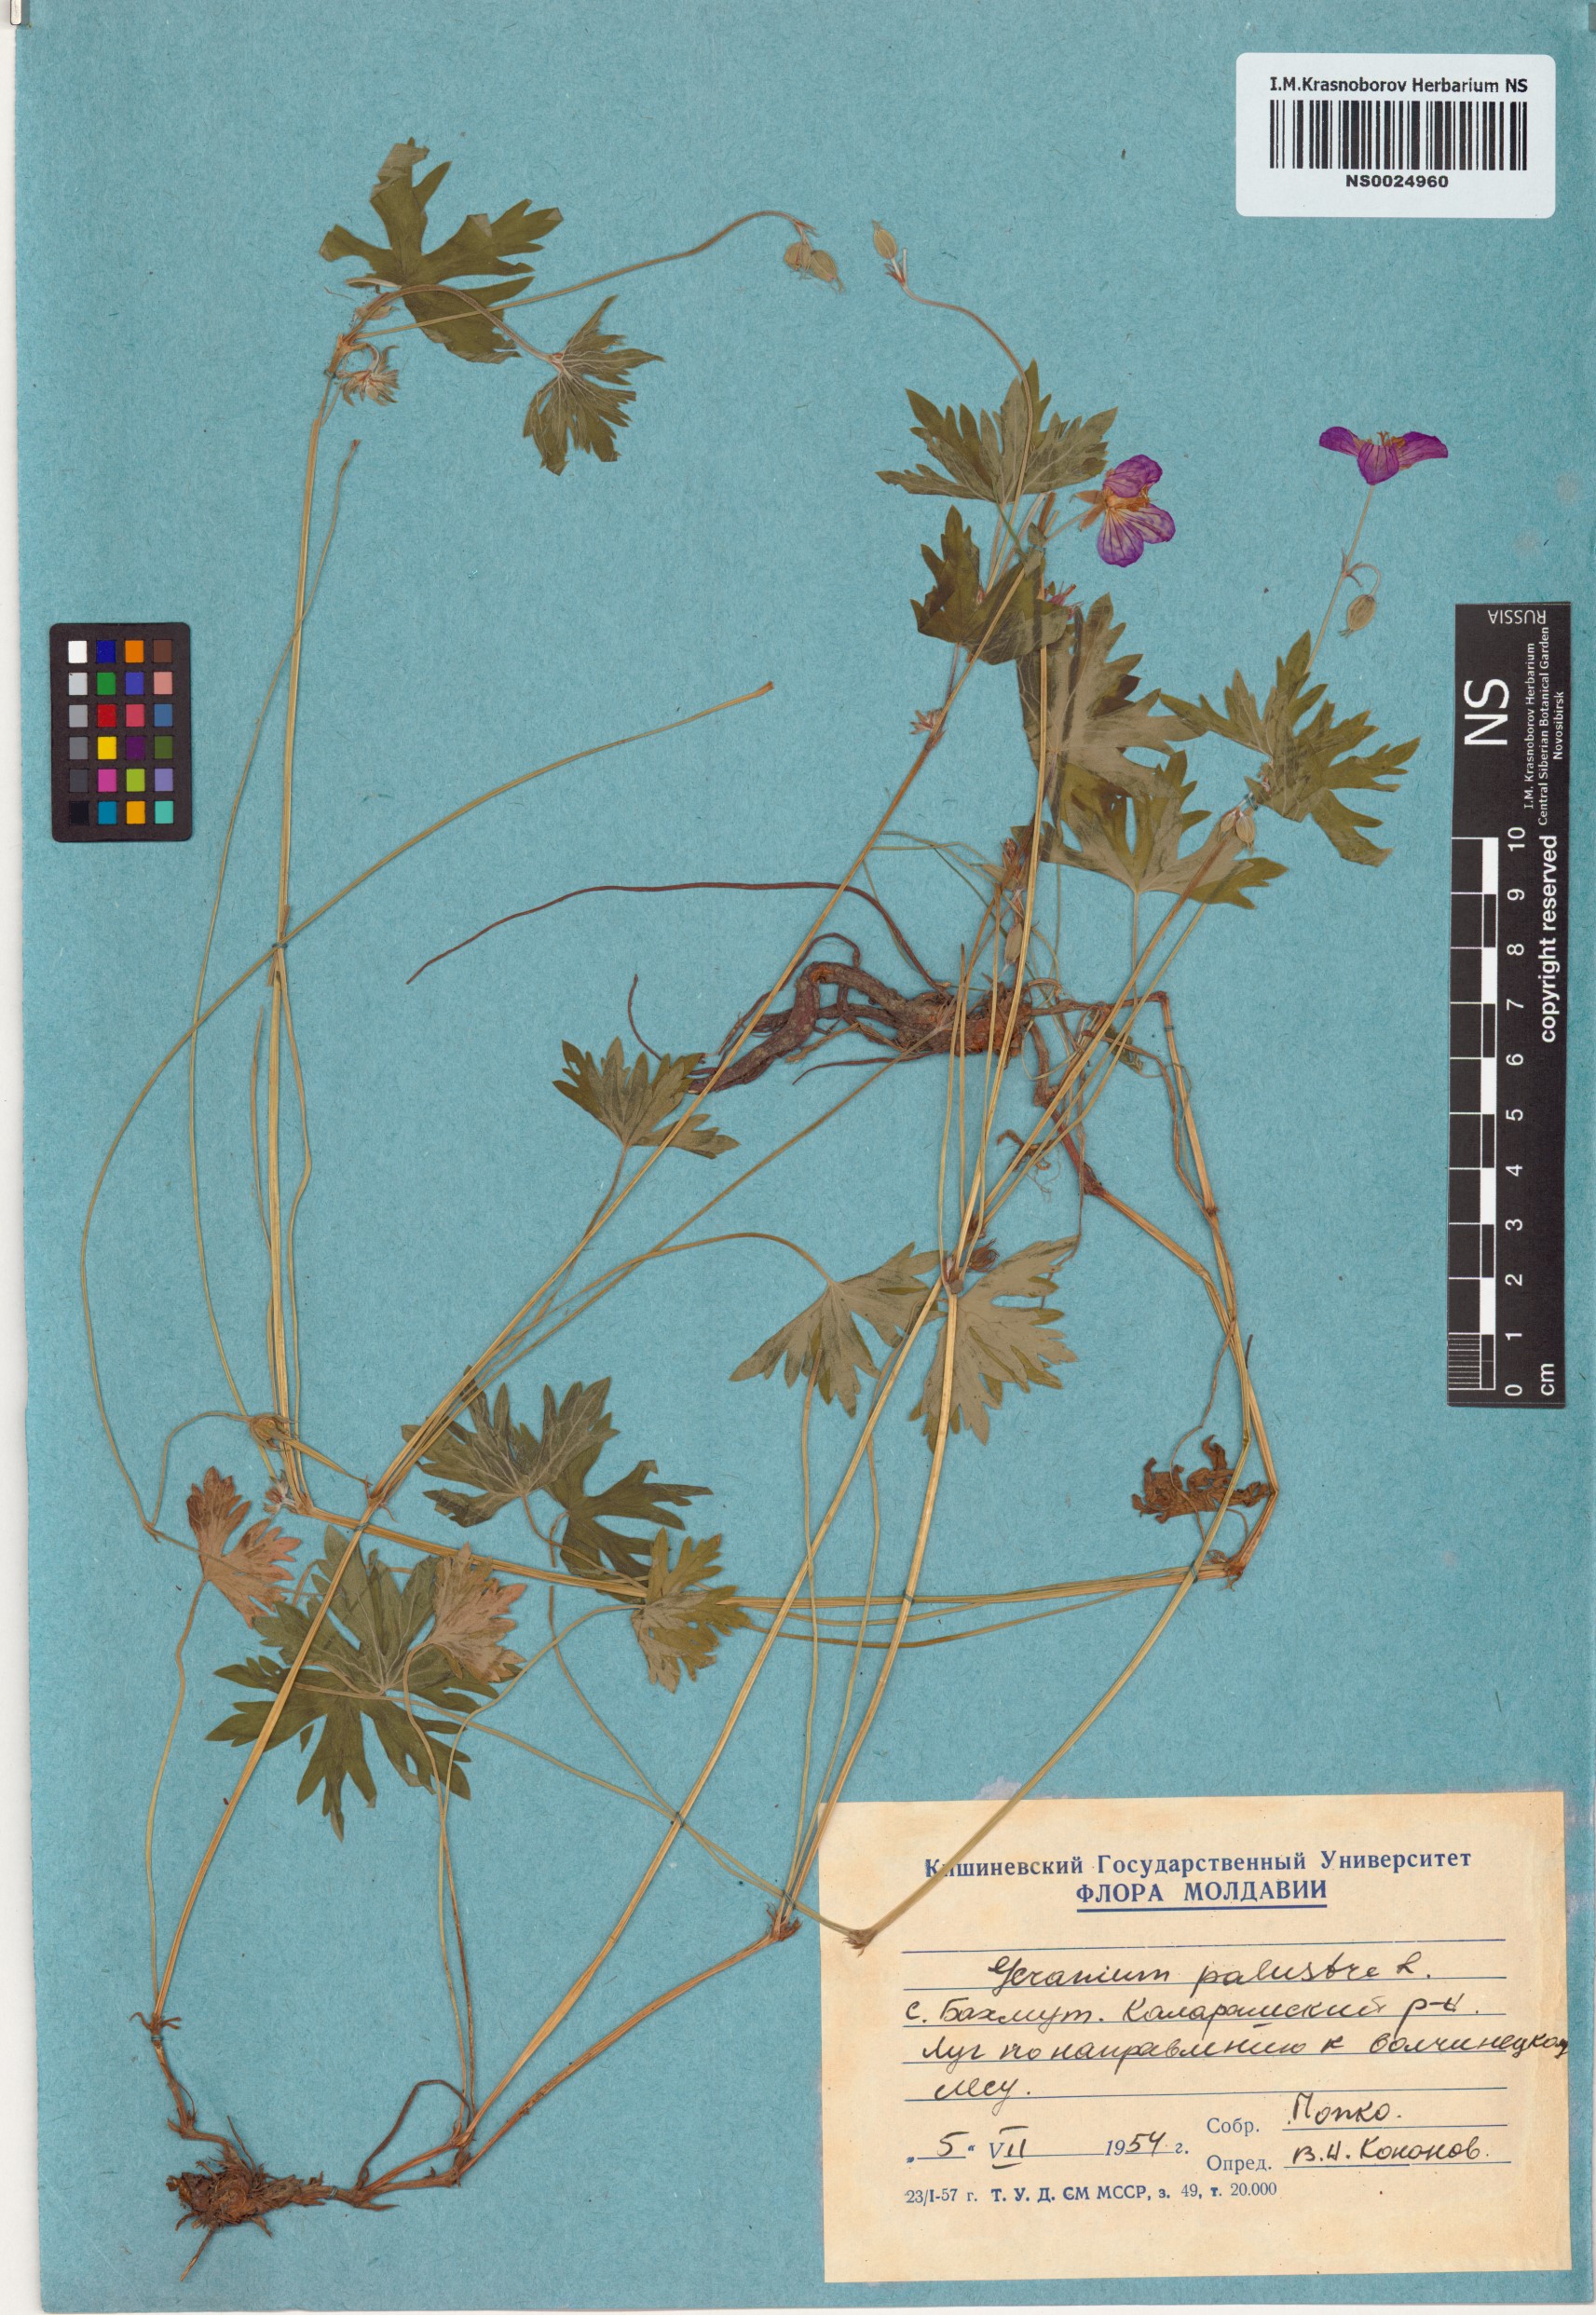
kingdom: Plantae
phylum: Tracheophyta
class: Magnoliopsida
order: Geraniales
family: Geraniaceae
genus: Geranium
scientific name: Geranium palustre
